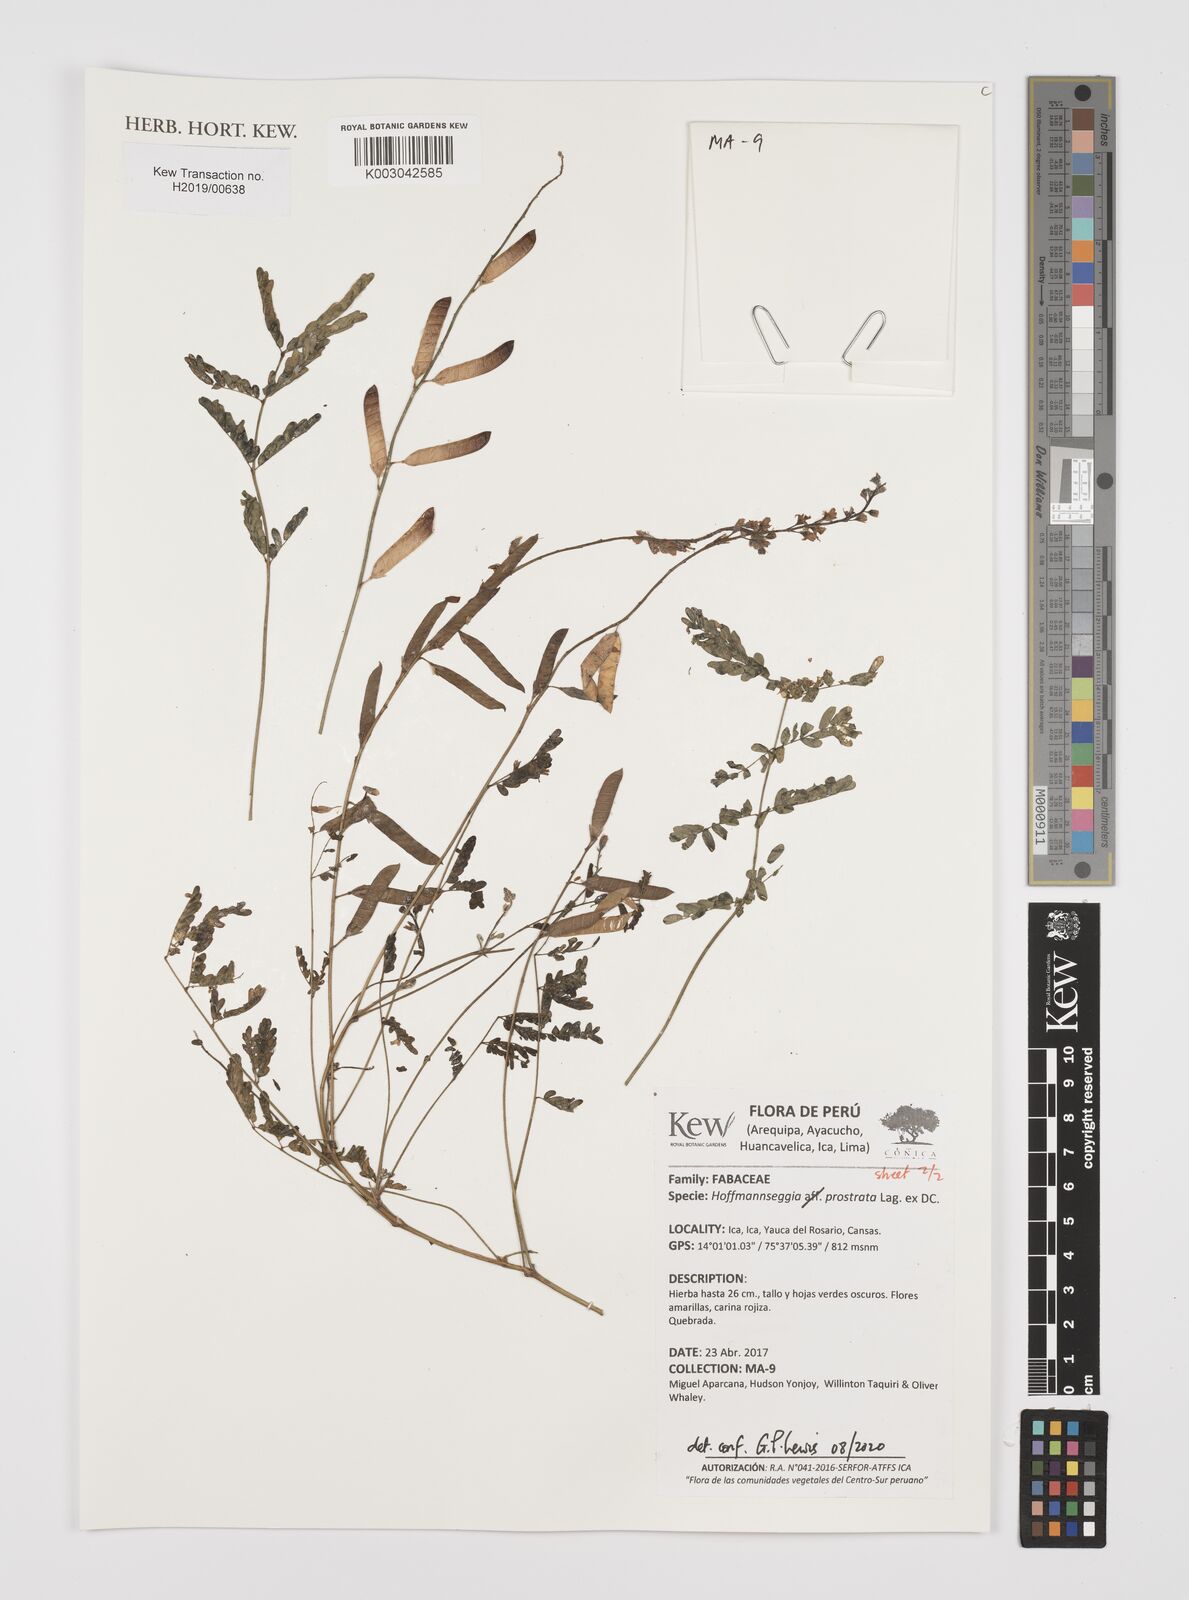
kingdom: Plantae
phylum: Tracheophyta
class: Magnoliopsida
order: Fabales
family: Fabaceae
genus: Hoffmannseggia
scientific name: Hoffmannseggia prostrata
